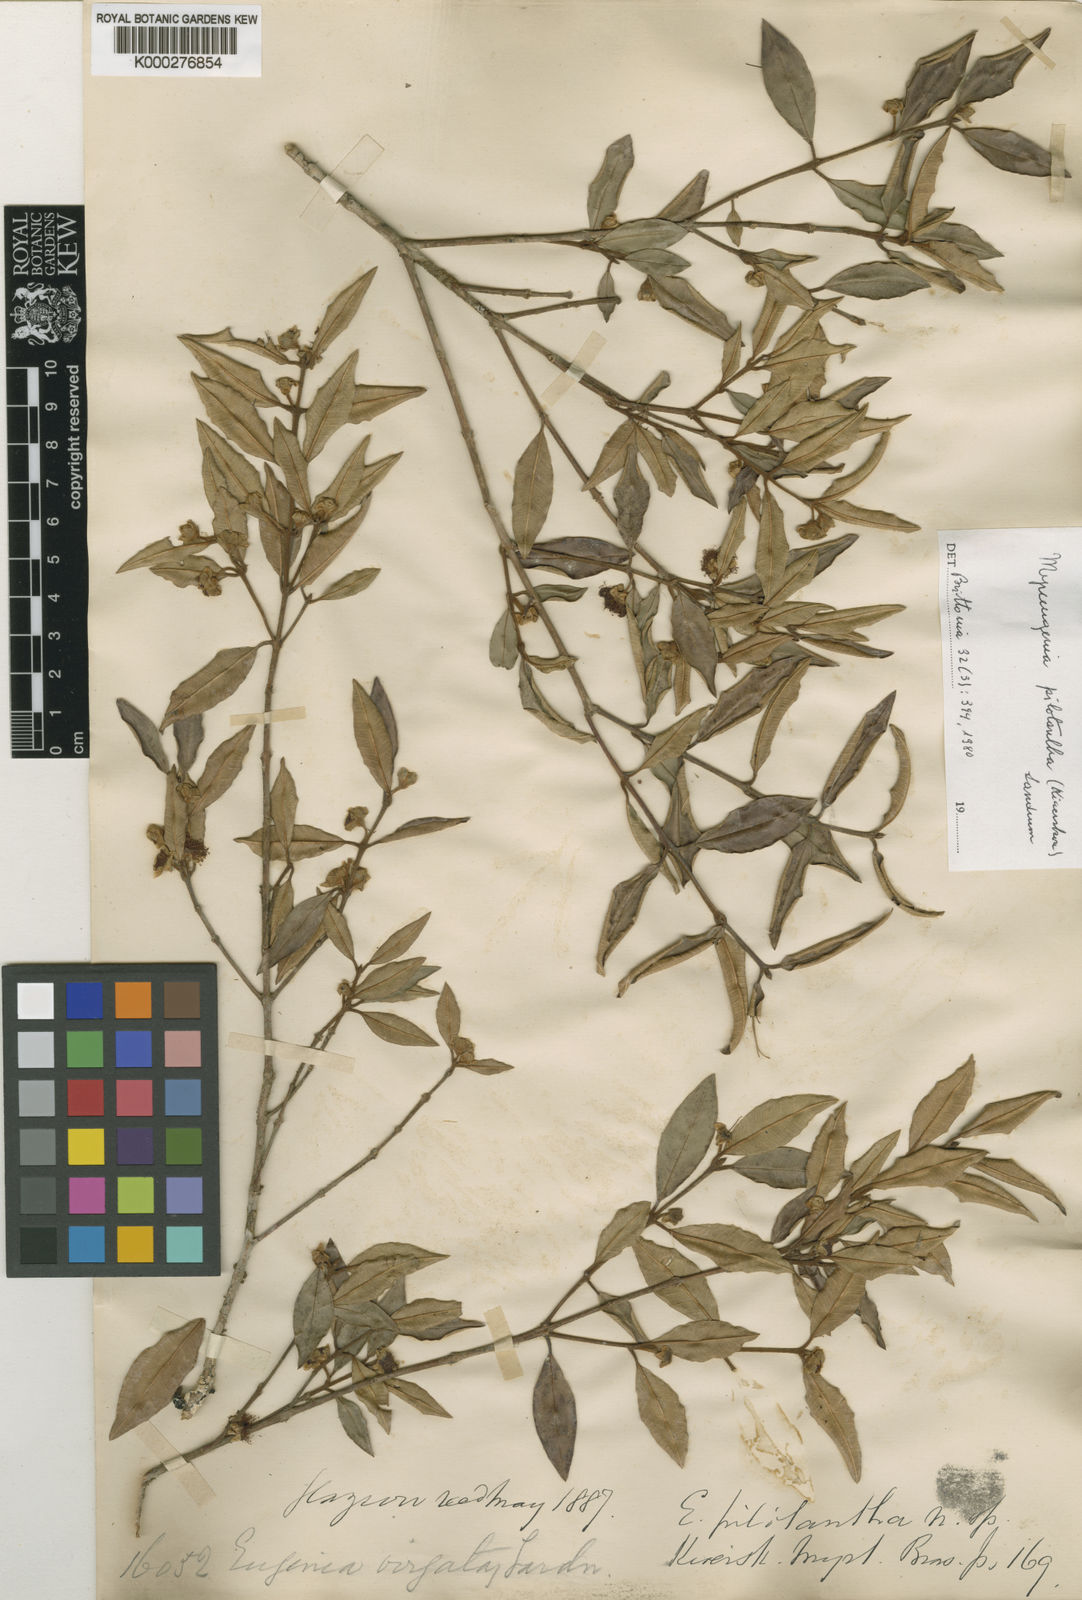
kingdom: Plantae
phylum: Tracheophyta
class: Magnoliopsida
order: Myrtales
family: Myrtaceae
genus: Myrceugenia
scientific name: Myrceugenia pilotantha
